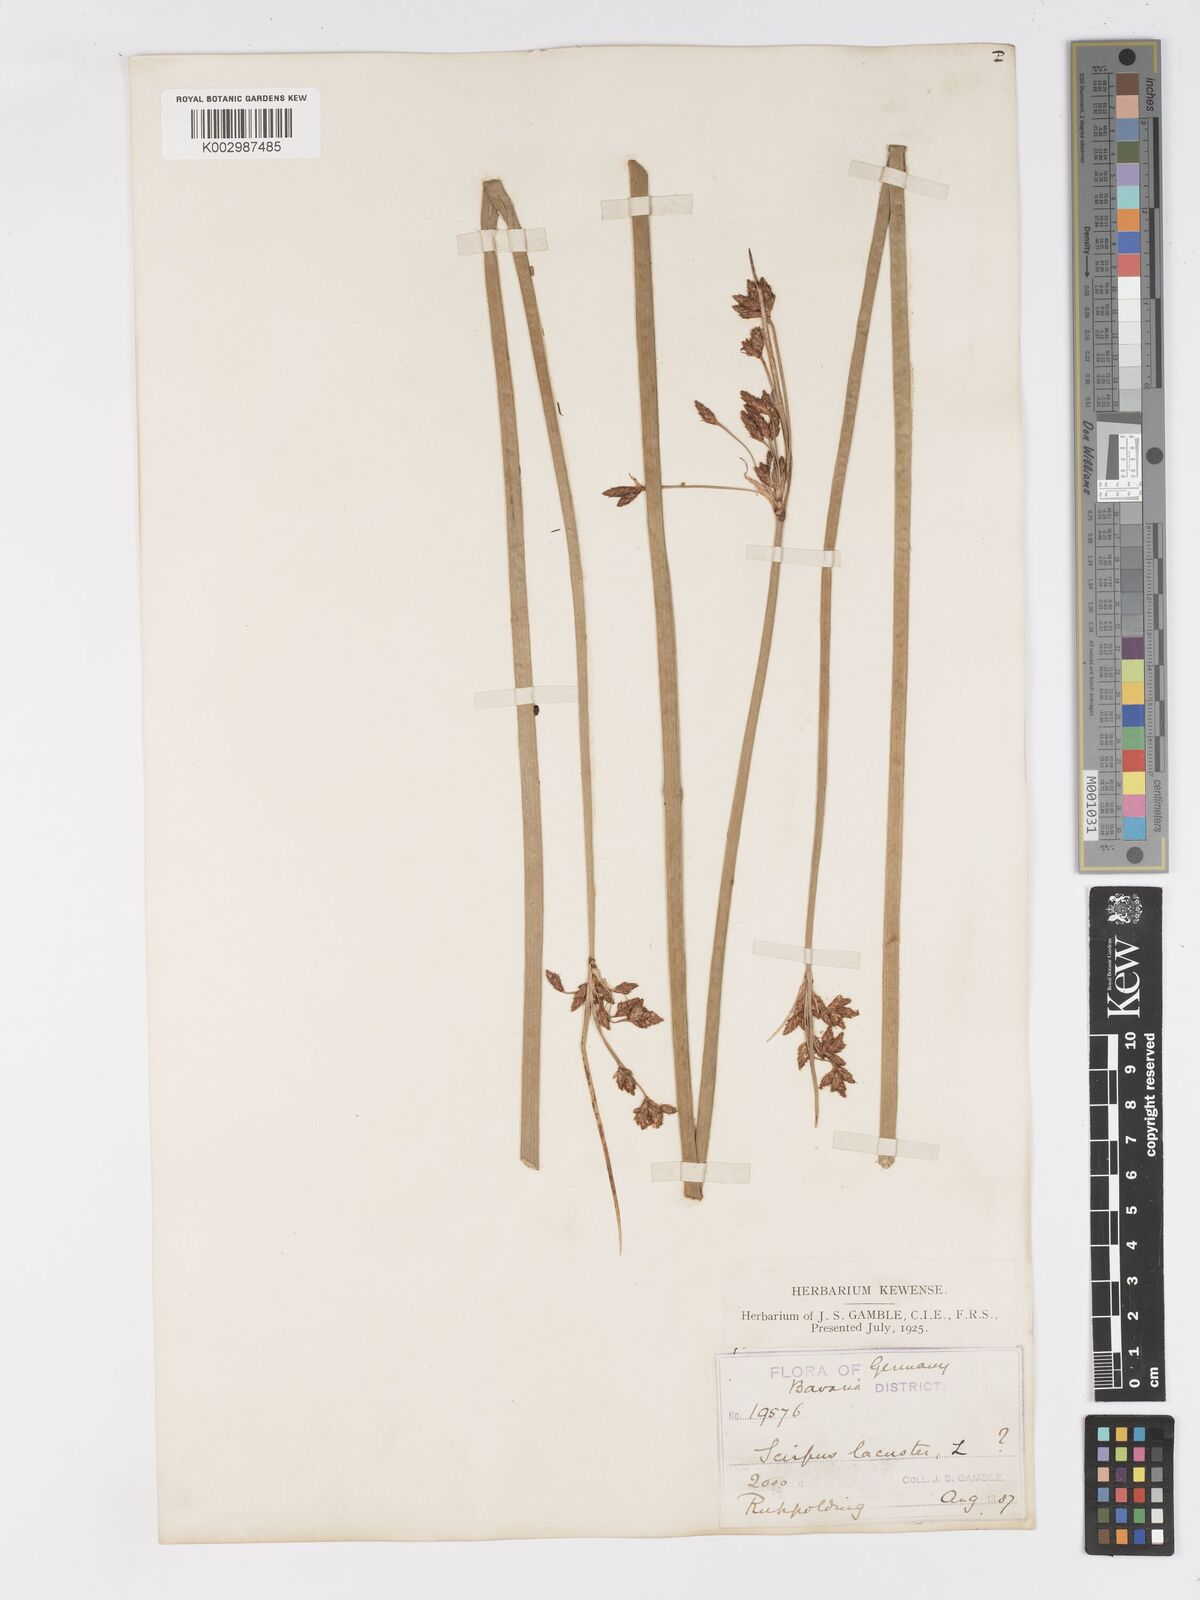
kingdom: Plantae
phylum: Tracheophyta
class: Liliopsida
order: Poales
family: Cyperaceae
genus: Schoenoplectus
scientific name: Schoenoplectus lacustris
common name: Common club-rush
